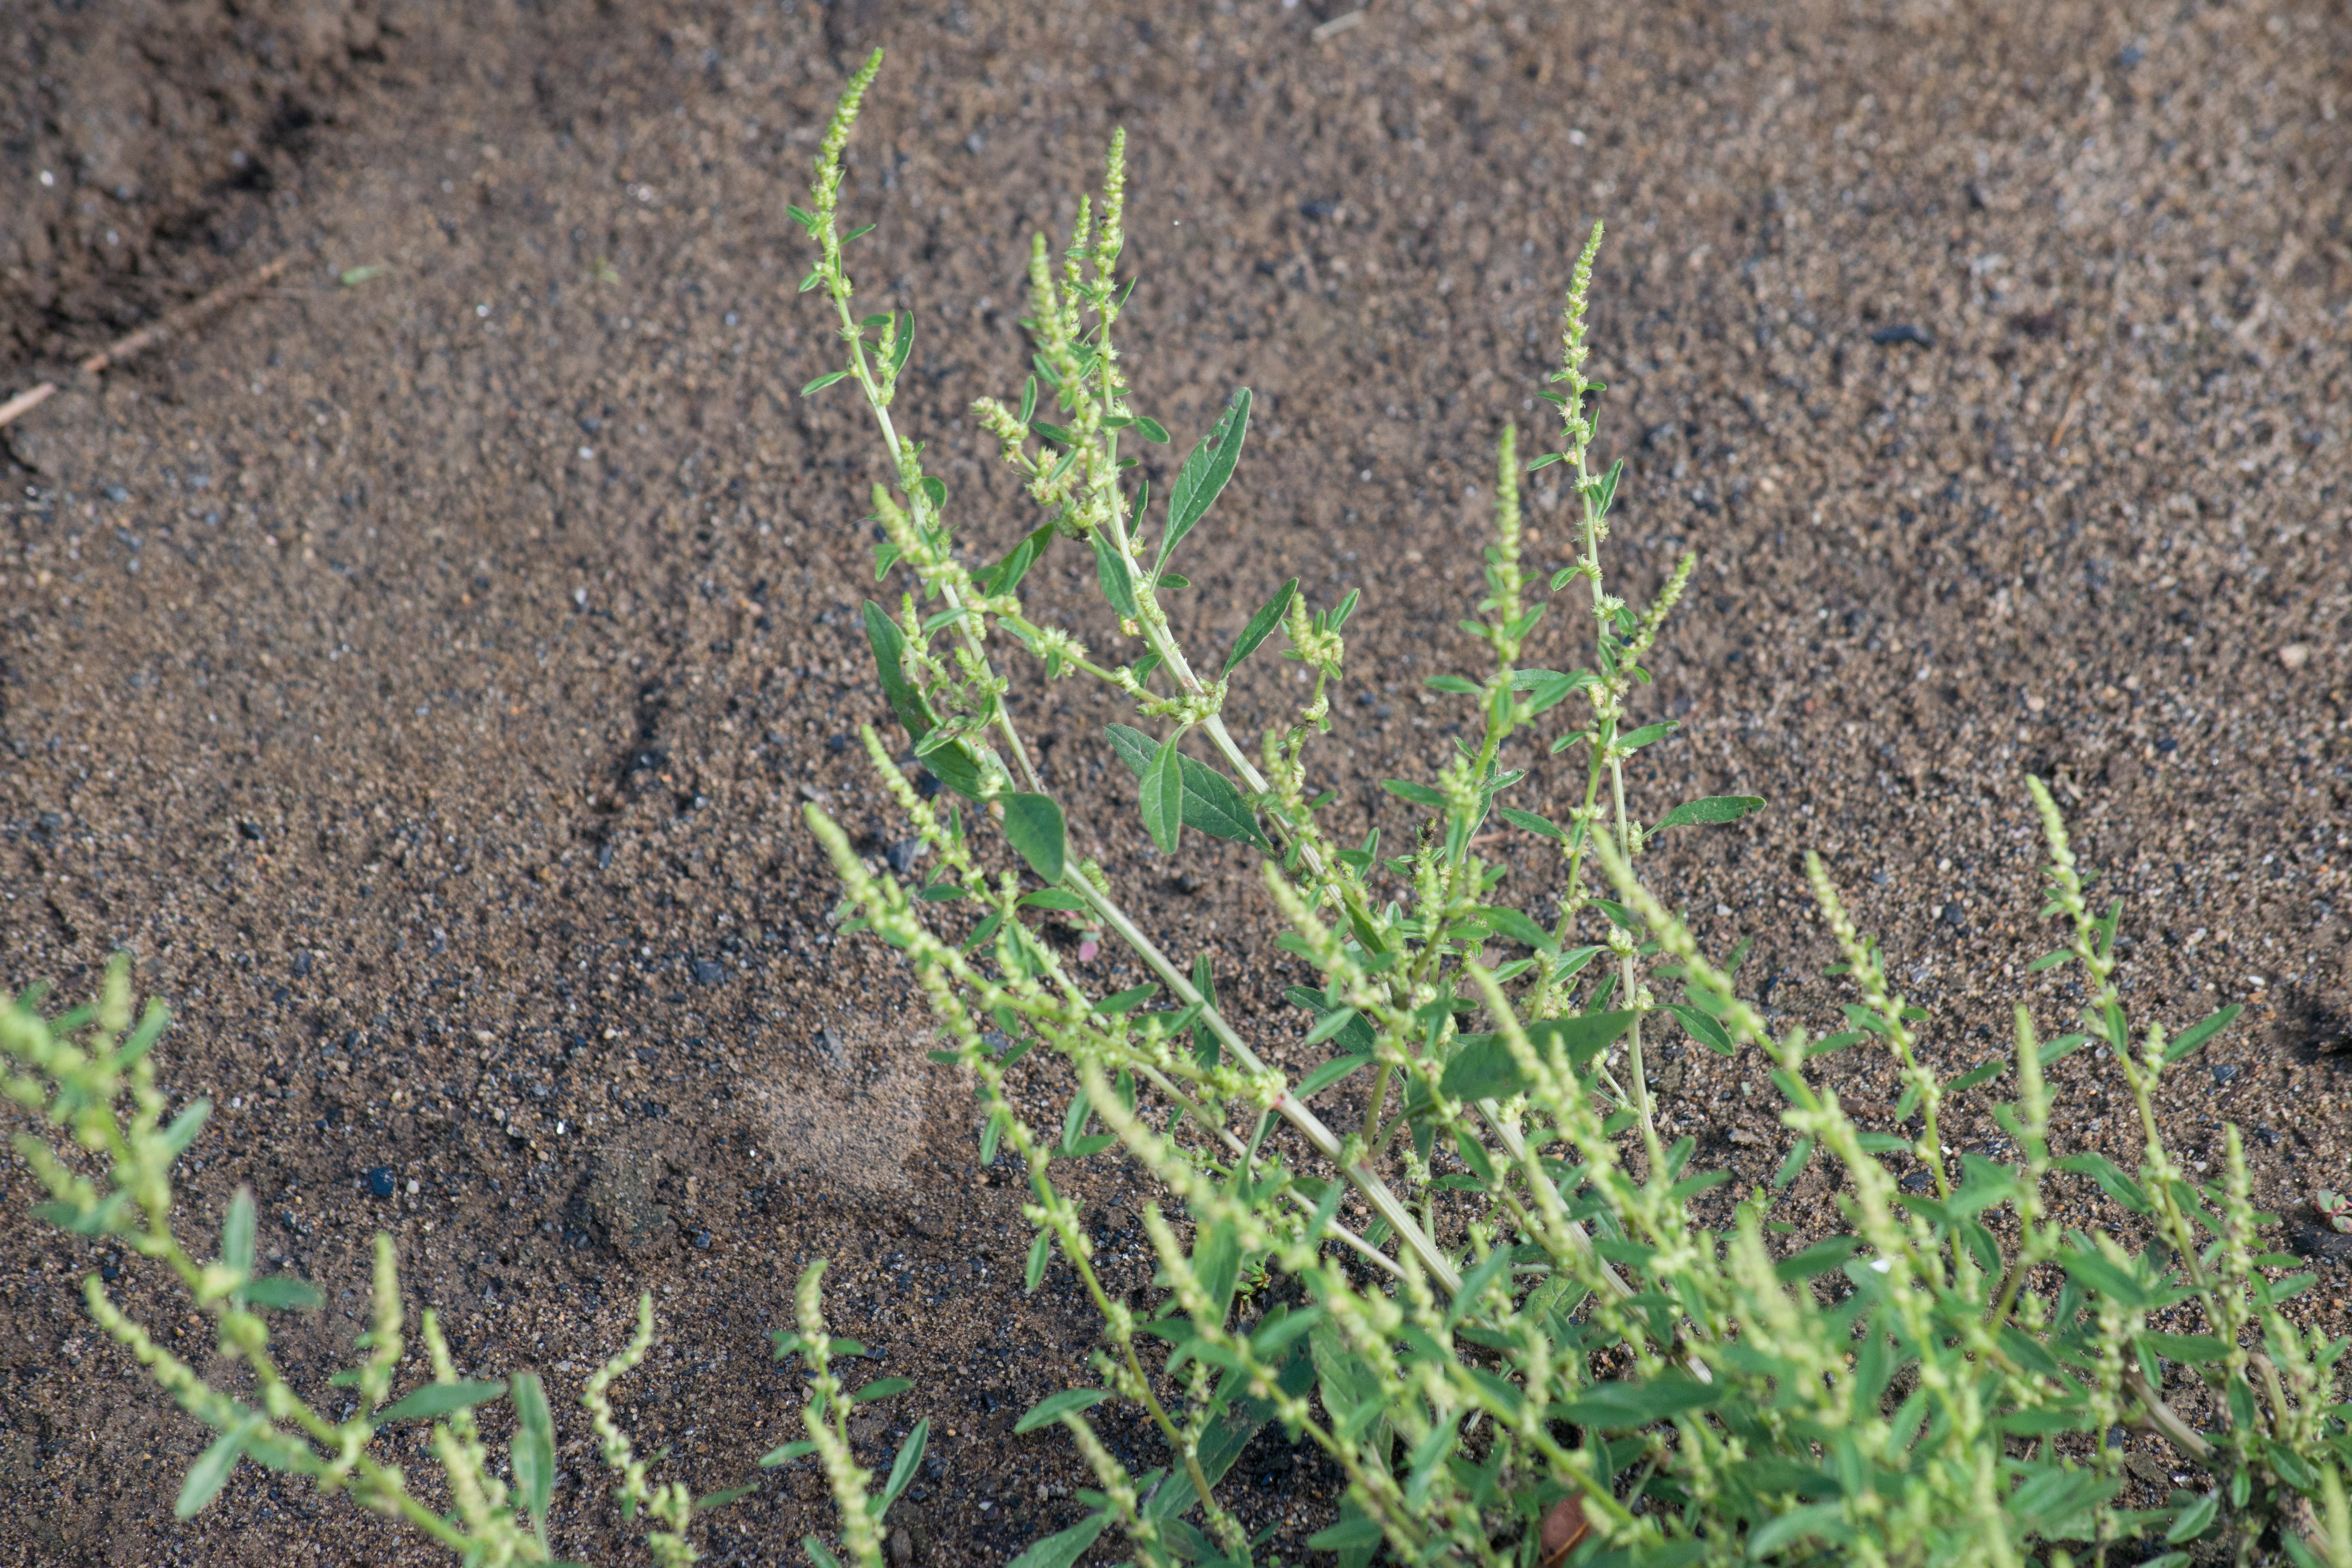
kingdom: Plantae
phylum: Tracheophyta
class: Magnoliopsida
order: Caryophyllales
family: Amaranthaceae
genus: Amaranthus
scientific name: Amaranthus tuberculatus
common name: Rough-fruit amaranth
